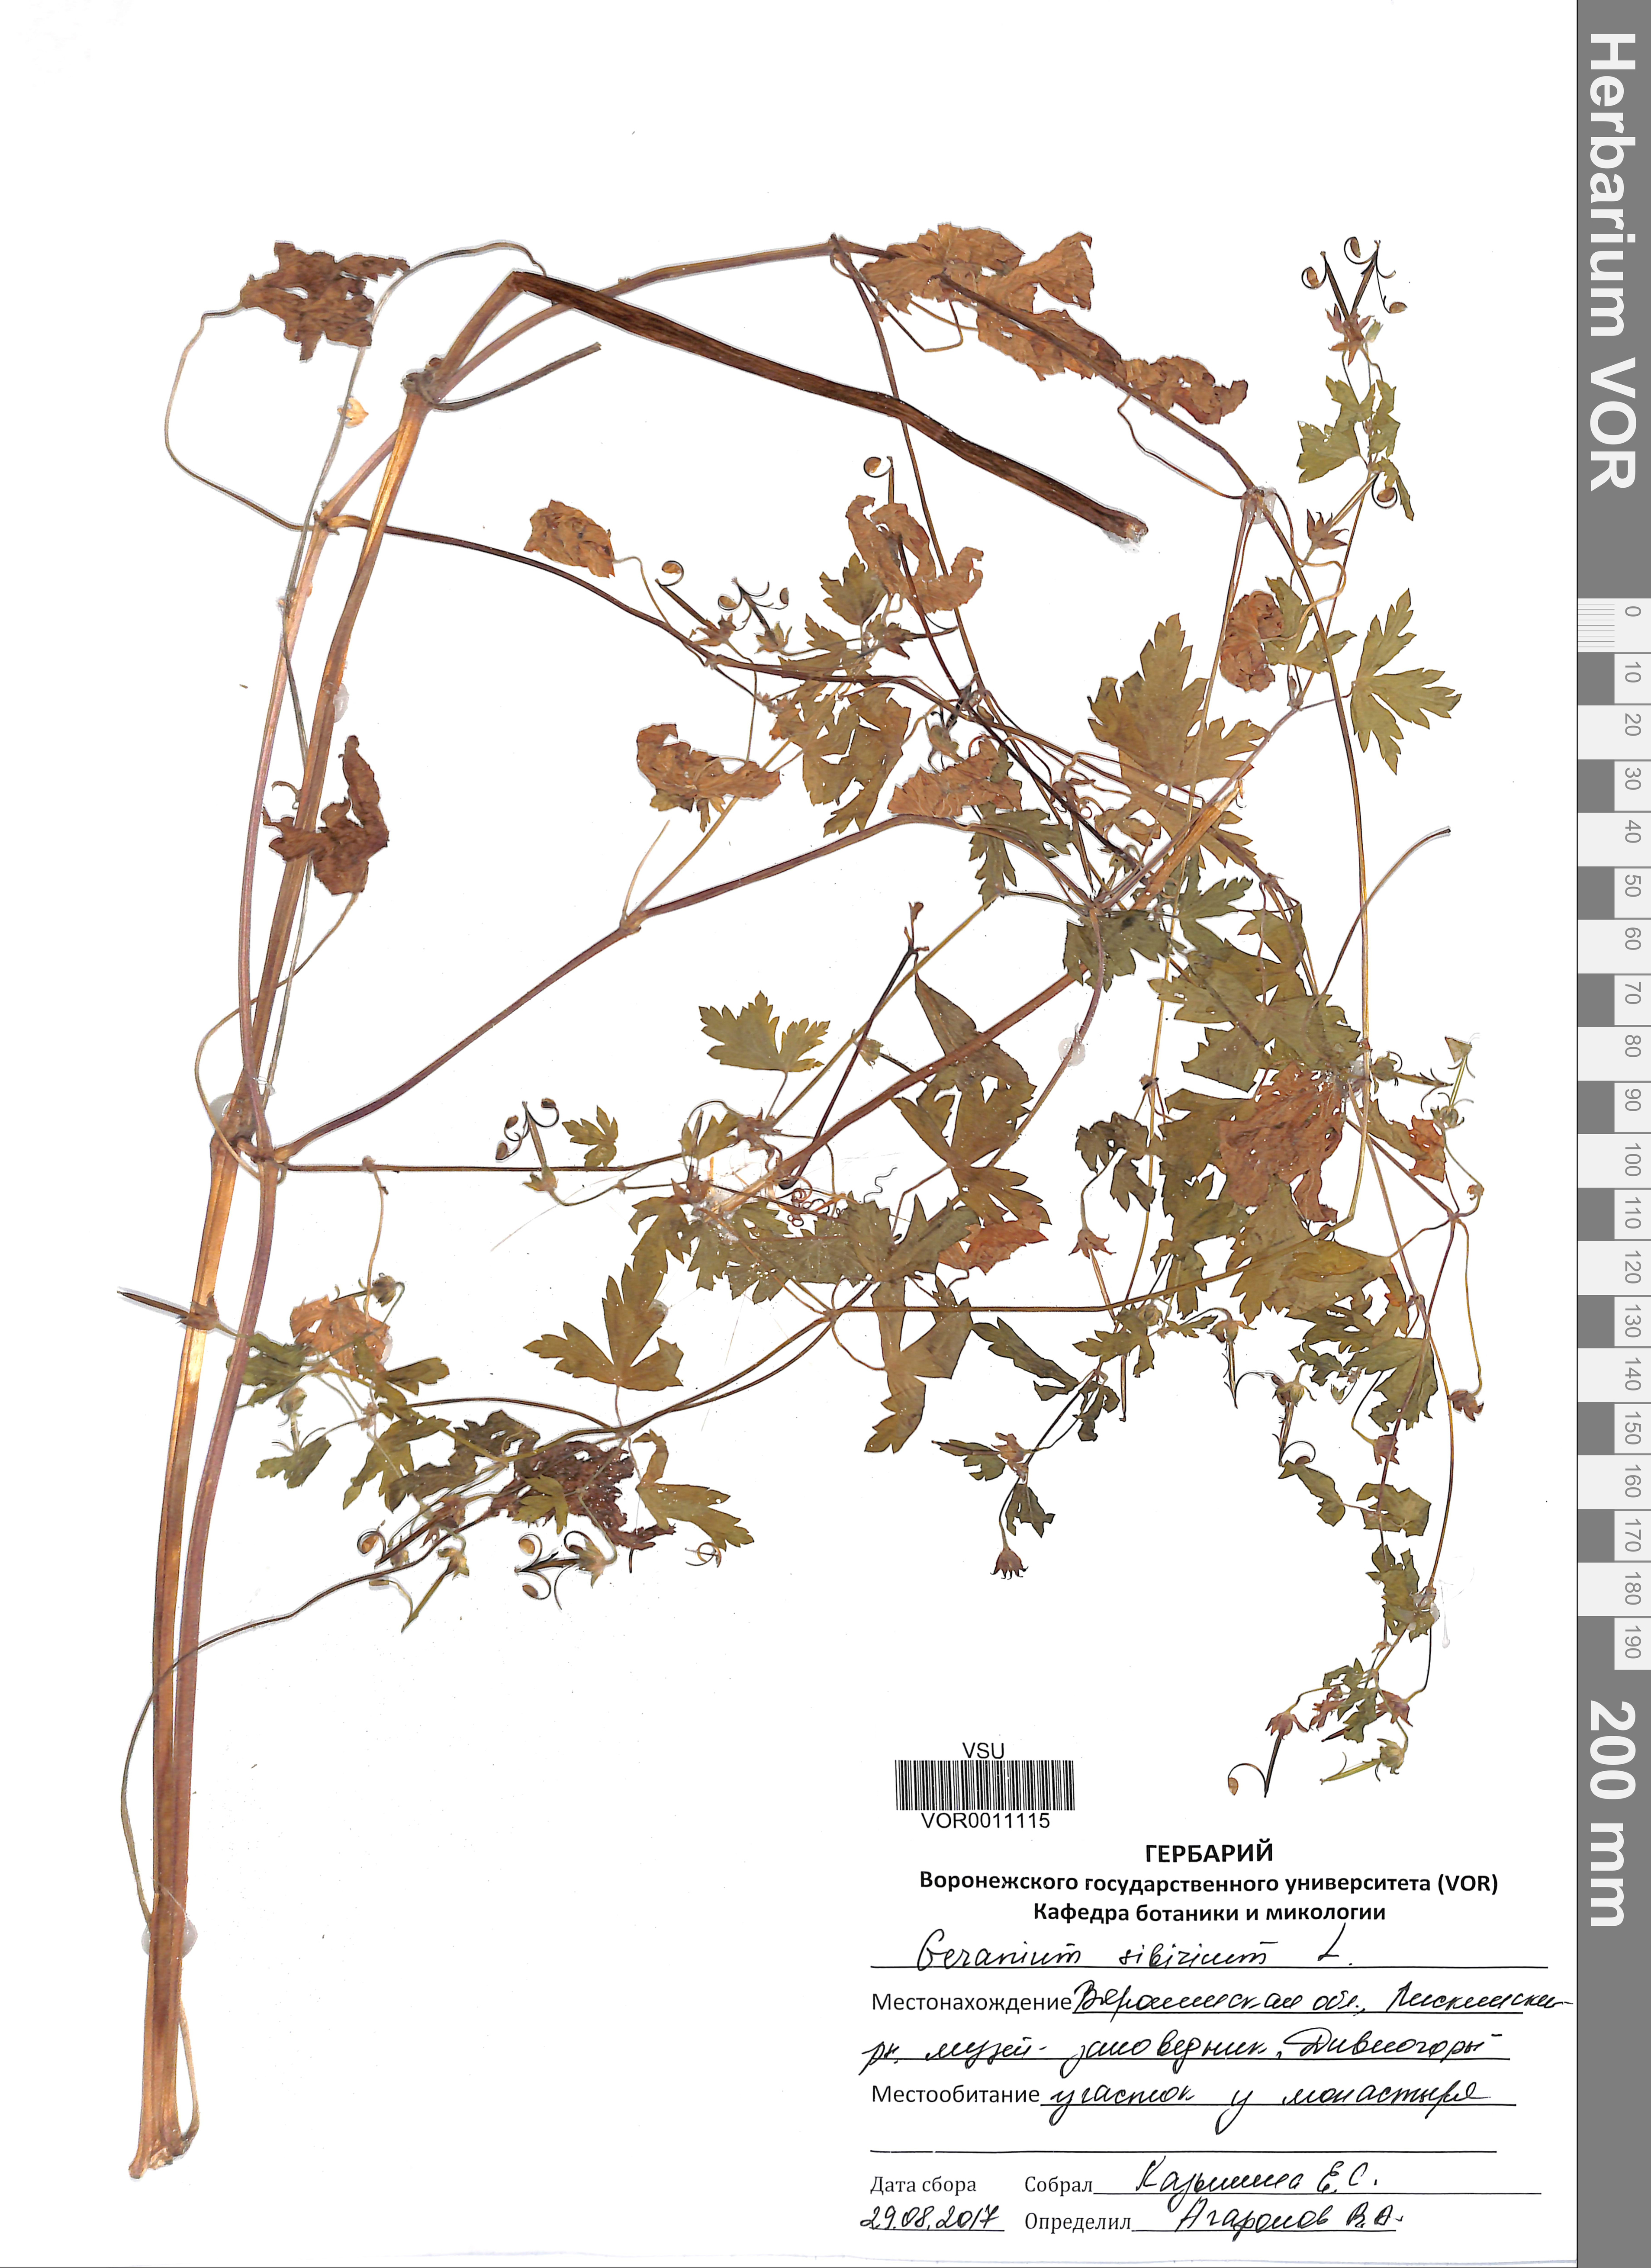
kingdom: Plantae
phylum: Tracheophyta
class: Magnoliopsida
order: Geraniales
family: Geraniaceae
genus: Geranium
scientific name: Geranium sibiricum
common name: Siberian crane's-bill
